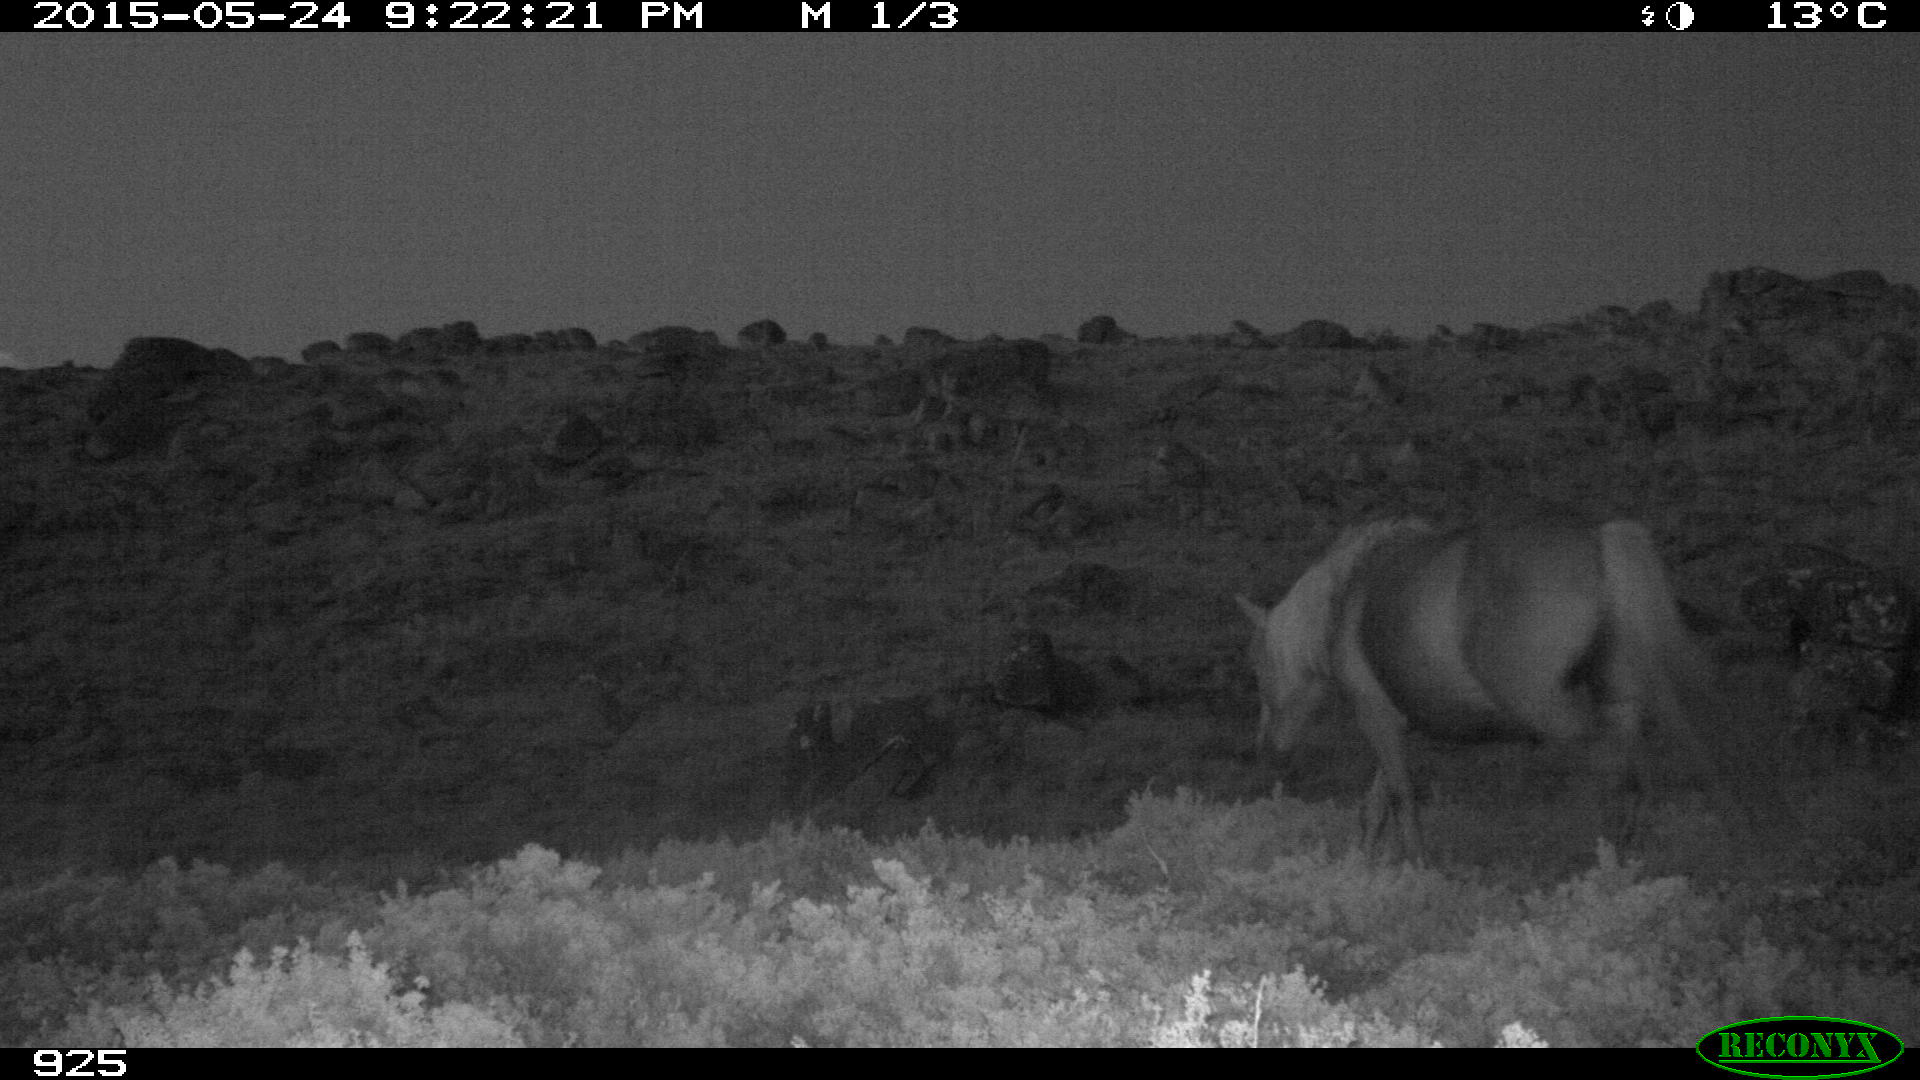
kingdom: Animalia
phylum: Chordata
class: Mammalia
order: Perissodactyla
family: Equidae
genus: Equus
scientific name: Equus caballus
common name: Horse
